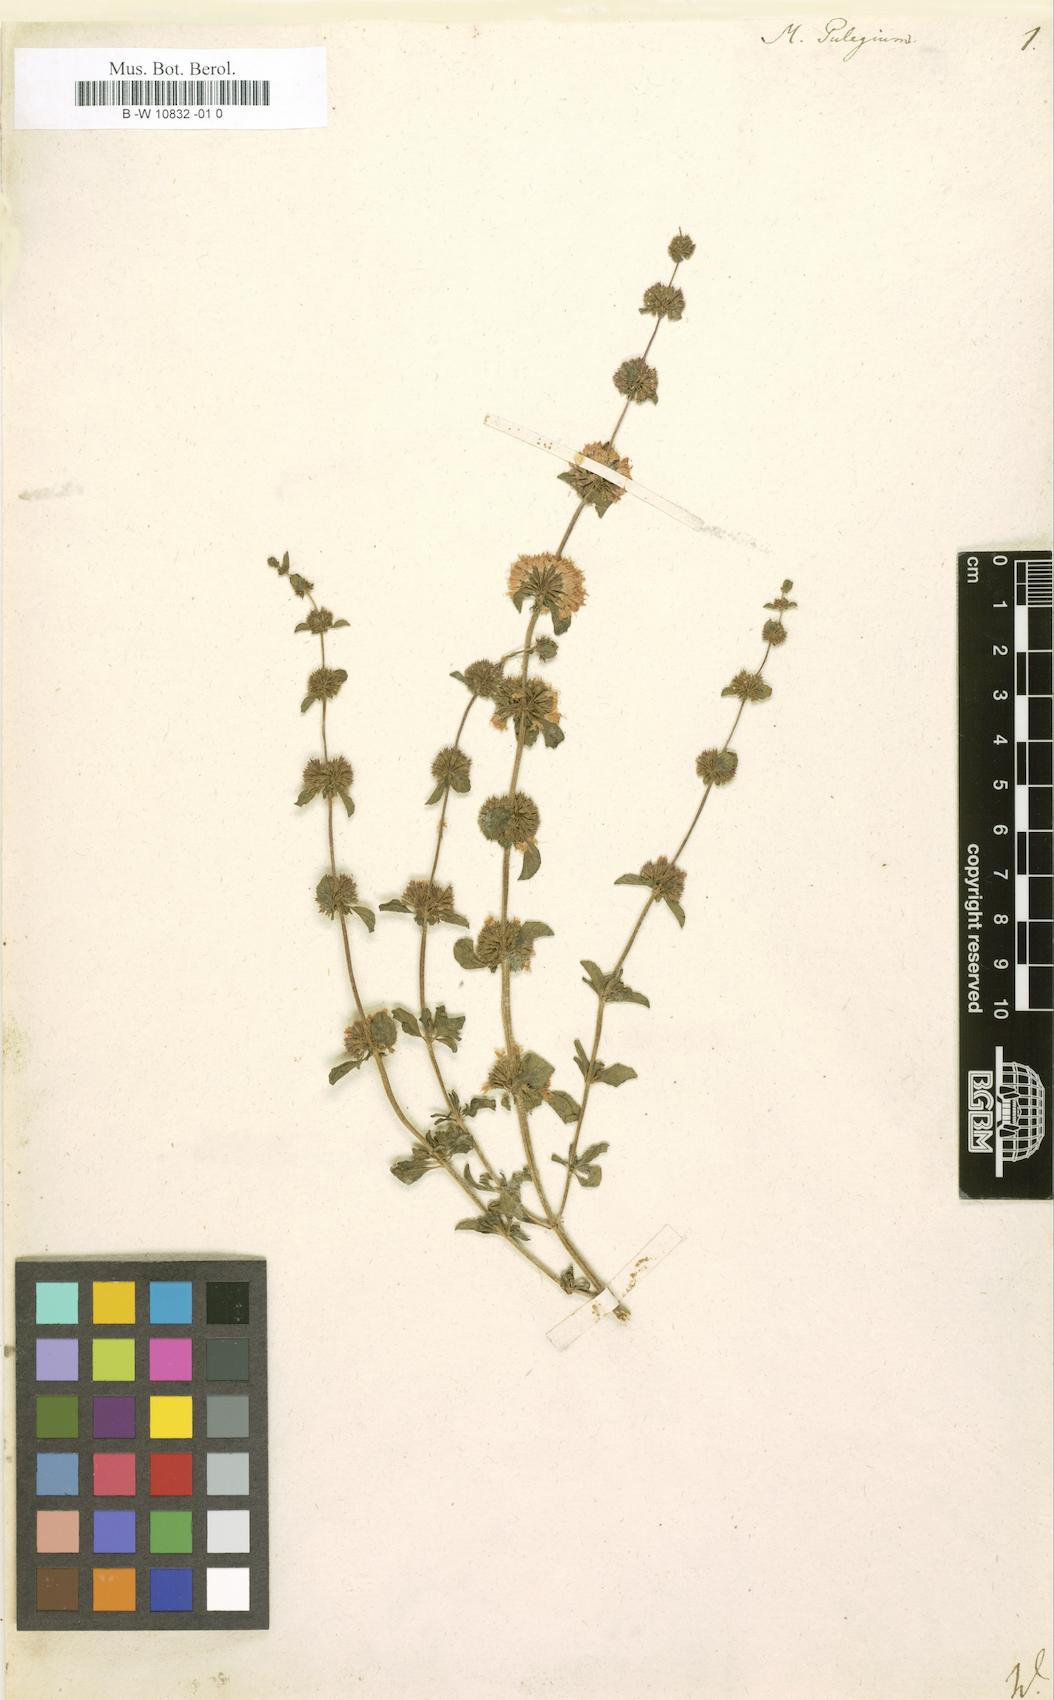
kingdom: Plantae
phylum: Tracheophyta
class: Magnoliopsida
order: Lamiales
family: Lamiaceae
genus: Mentha
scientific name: Mentha pulegium
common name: Pennyroyal
